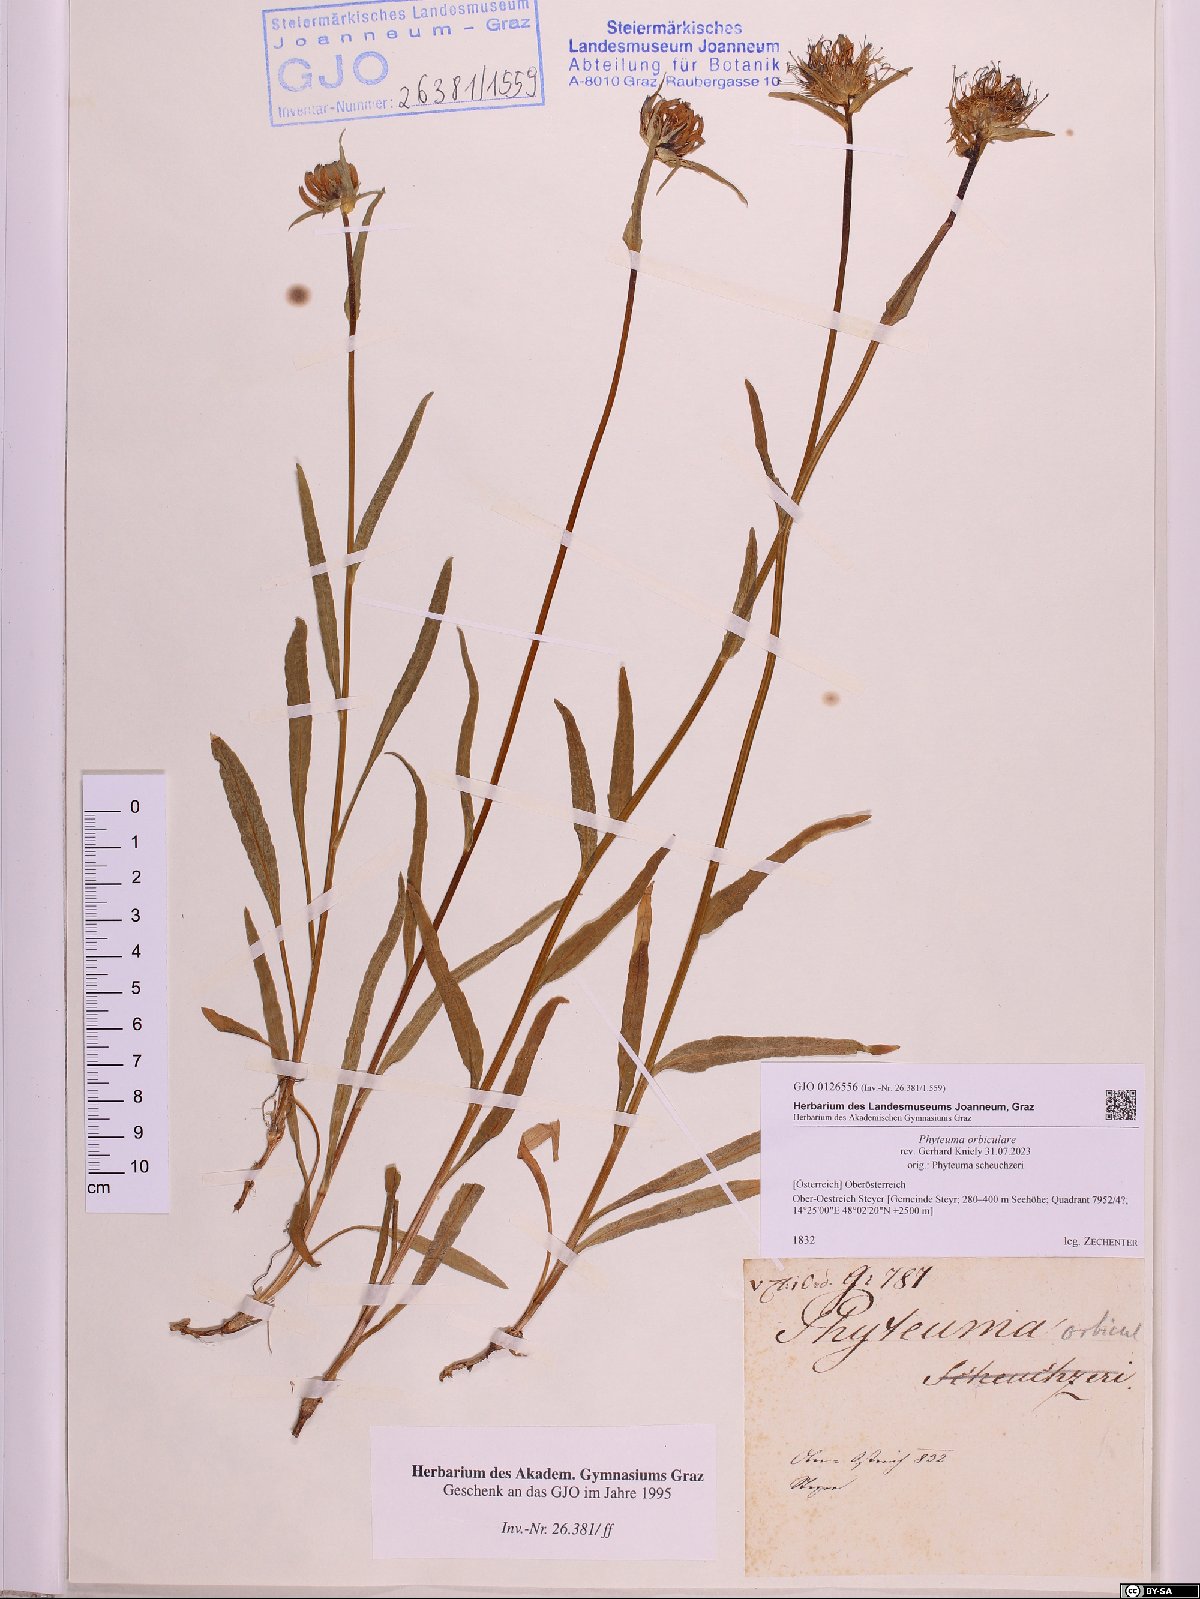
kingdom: Plantae
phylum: Tracheophyta
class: Magnoliopsida
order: Asterales
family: Campanulaceae
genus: Phyteuma
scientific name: Phyteuma orbiculare
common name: Round-headed rampion
